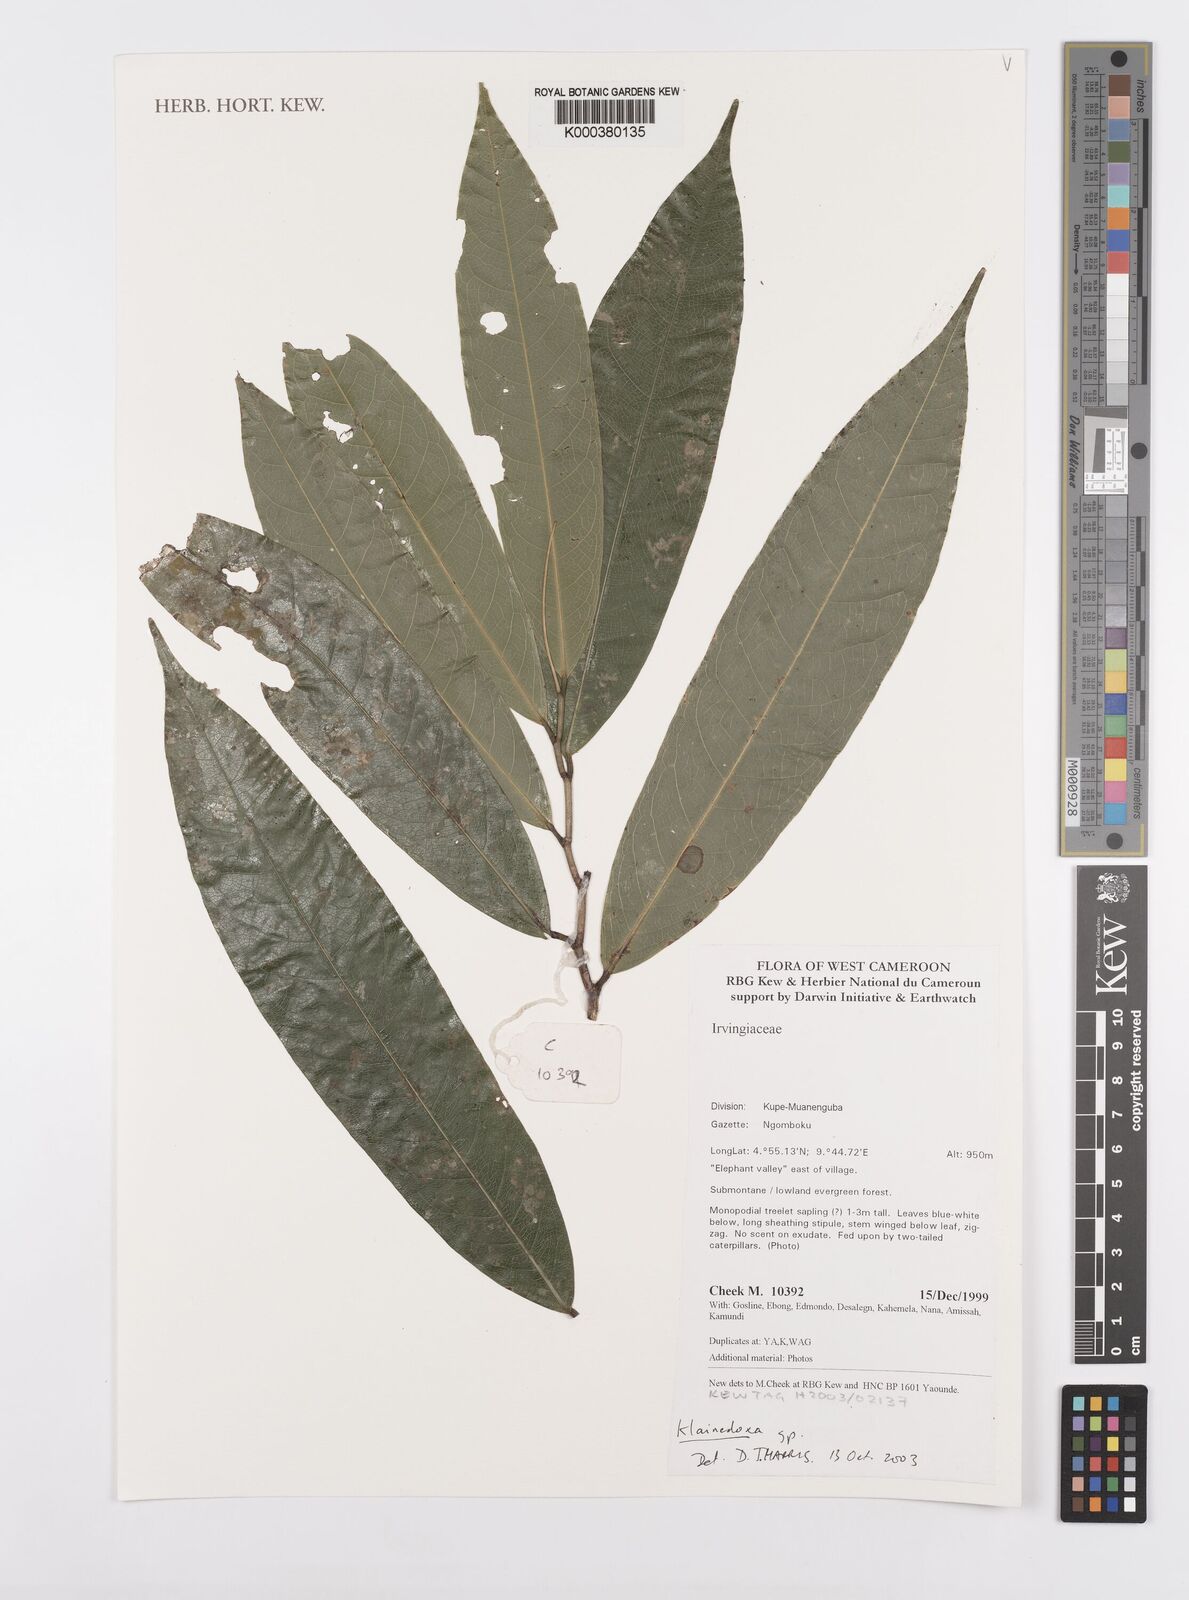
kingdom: Plantae
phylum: Tracheophyta
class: Magnoliopsida
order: Malpighiales
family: Irvingiaceae
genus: Klainedoxa
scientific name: Klainedoxa
